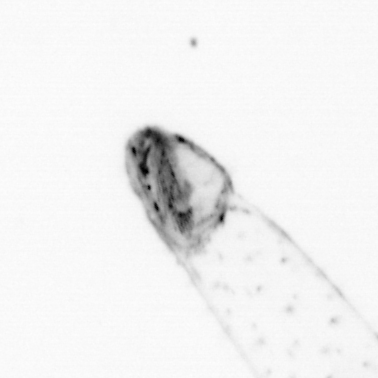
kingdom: Animalia
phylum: Chaetognatha
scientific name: Chaetognatha
